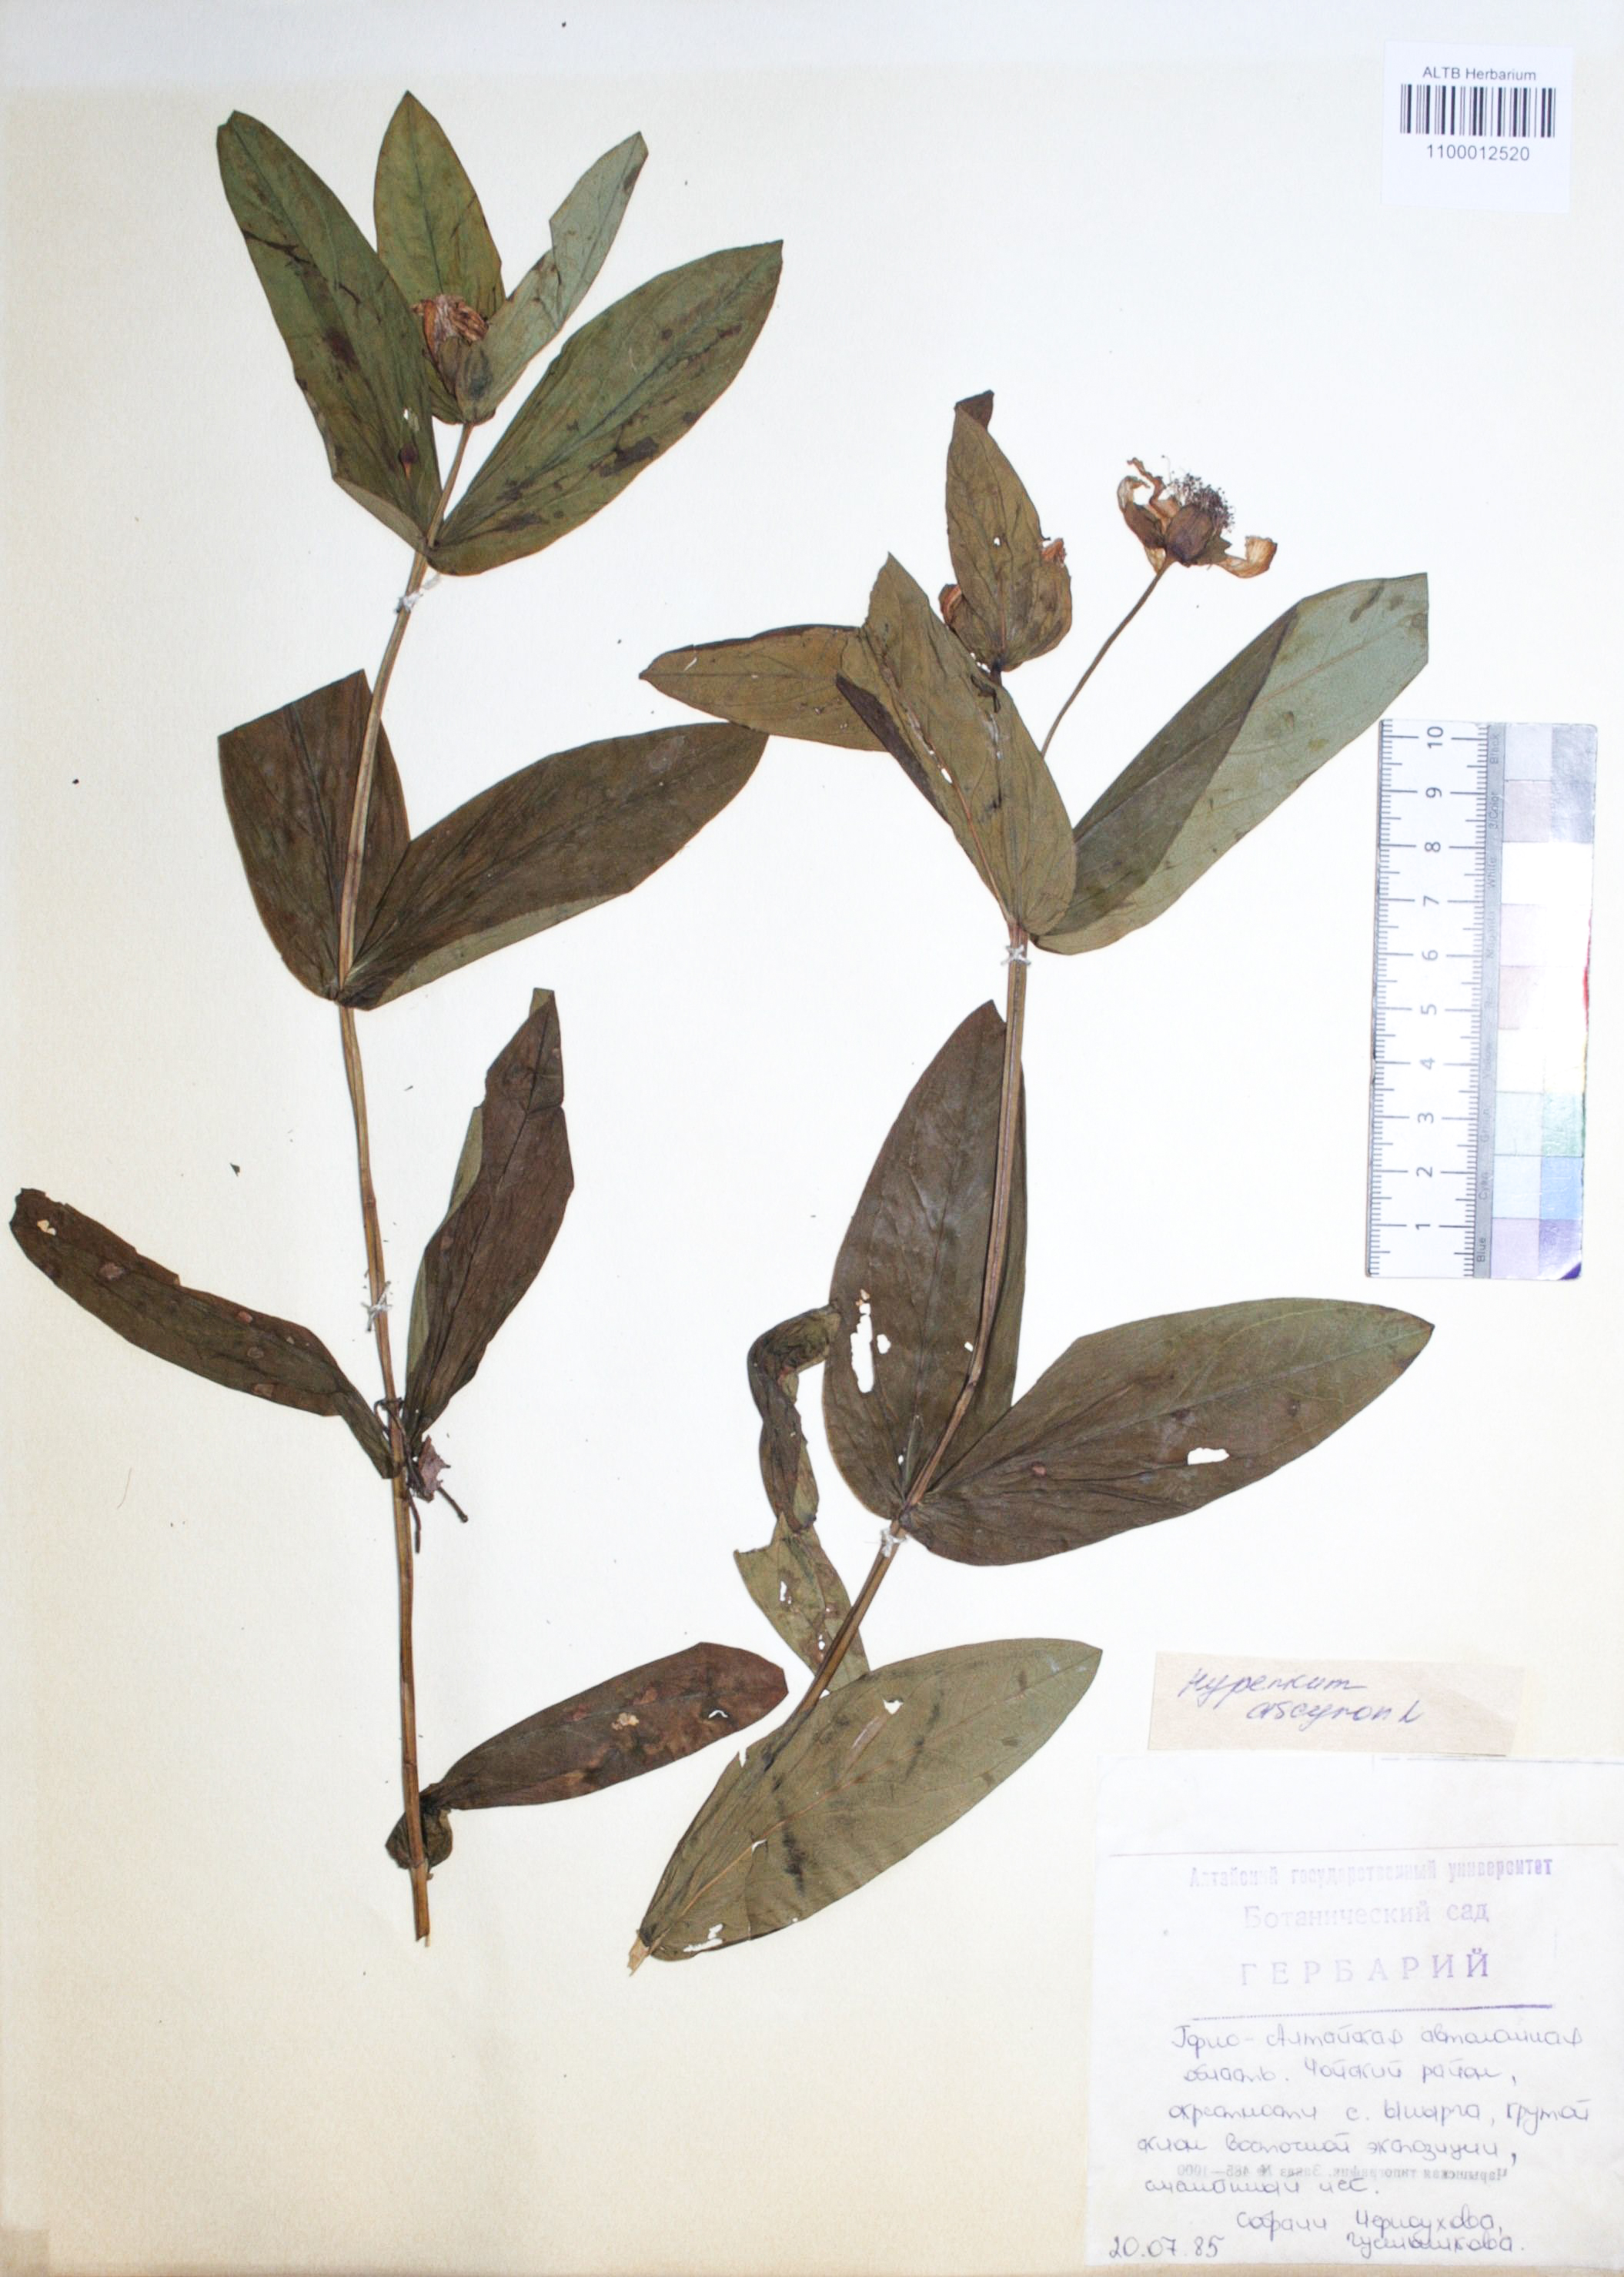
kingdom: Plantae
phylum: Tracheophyta
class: Magnoliopsida
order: Malpighiales
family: Hypericaceae
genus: Hypericum
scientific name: Hypericum ascyron
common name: Giant st. john's-wort
